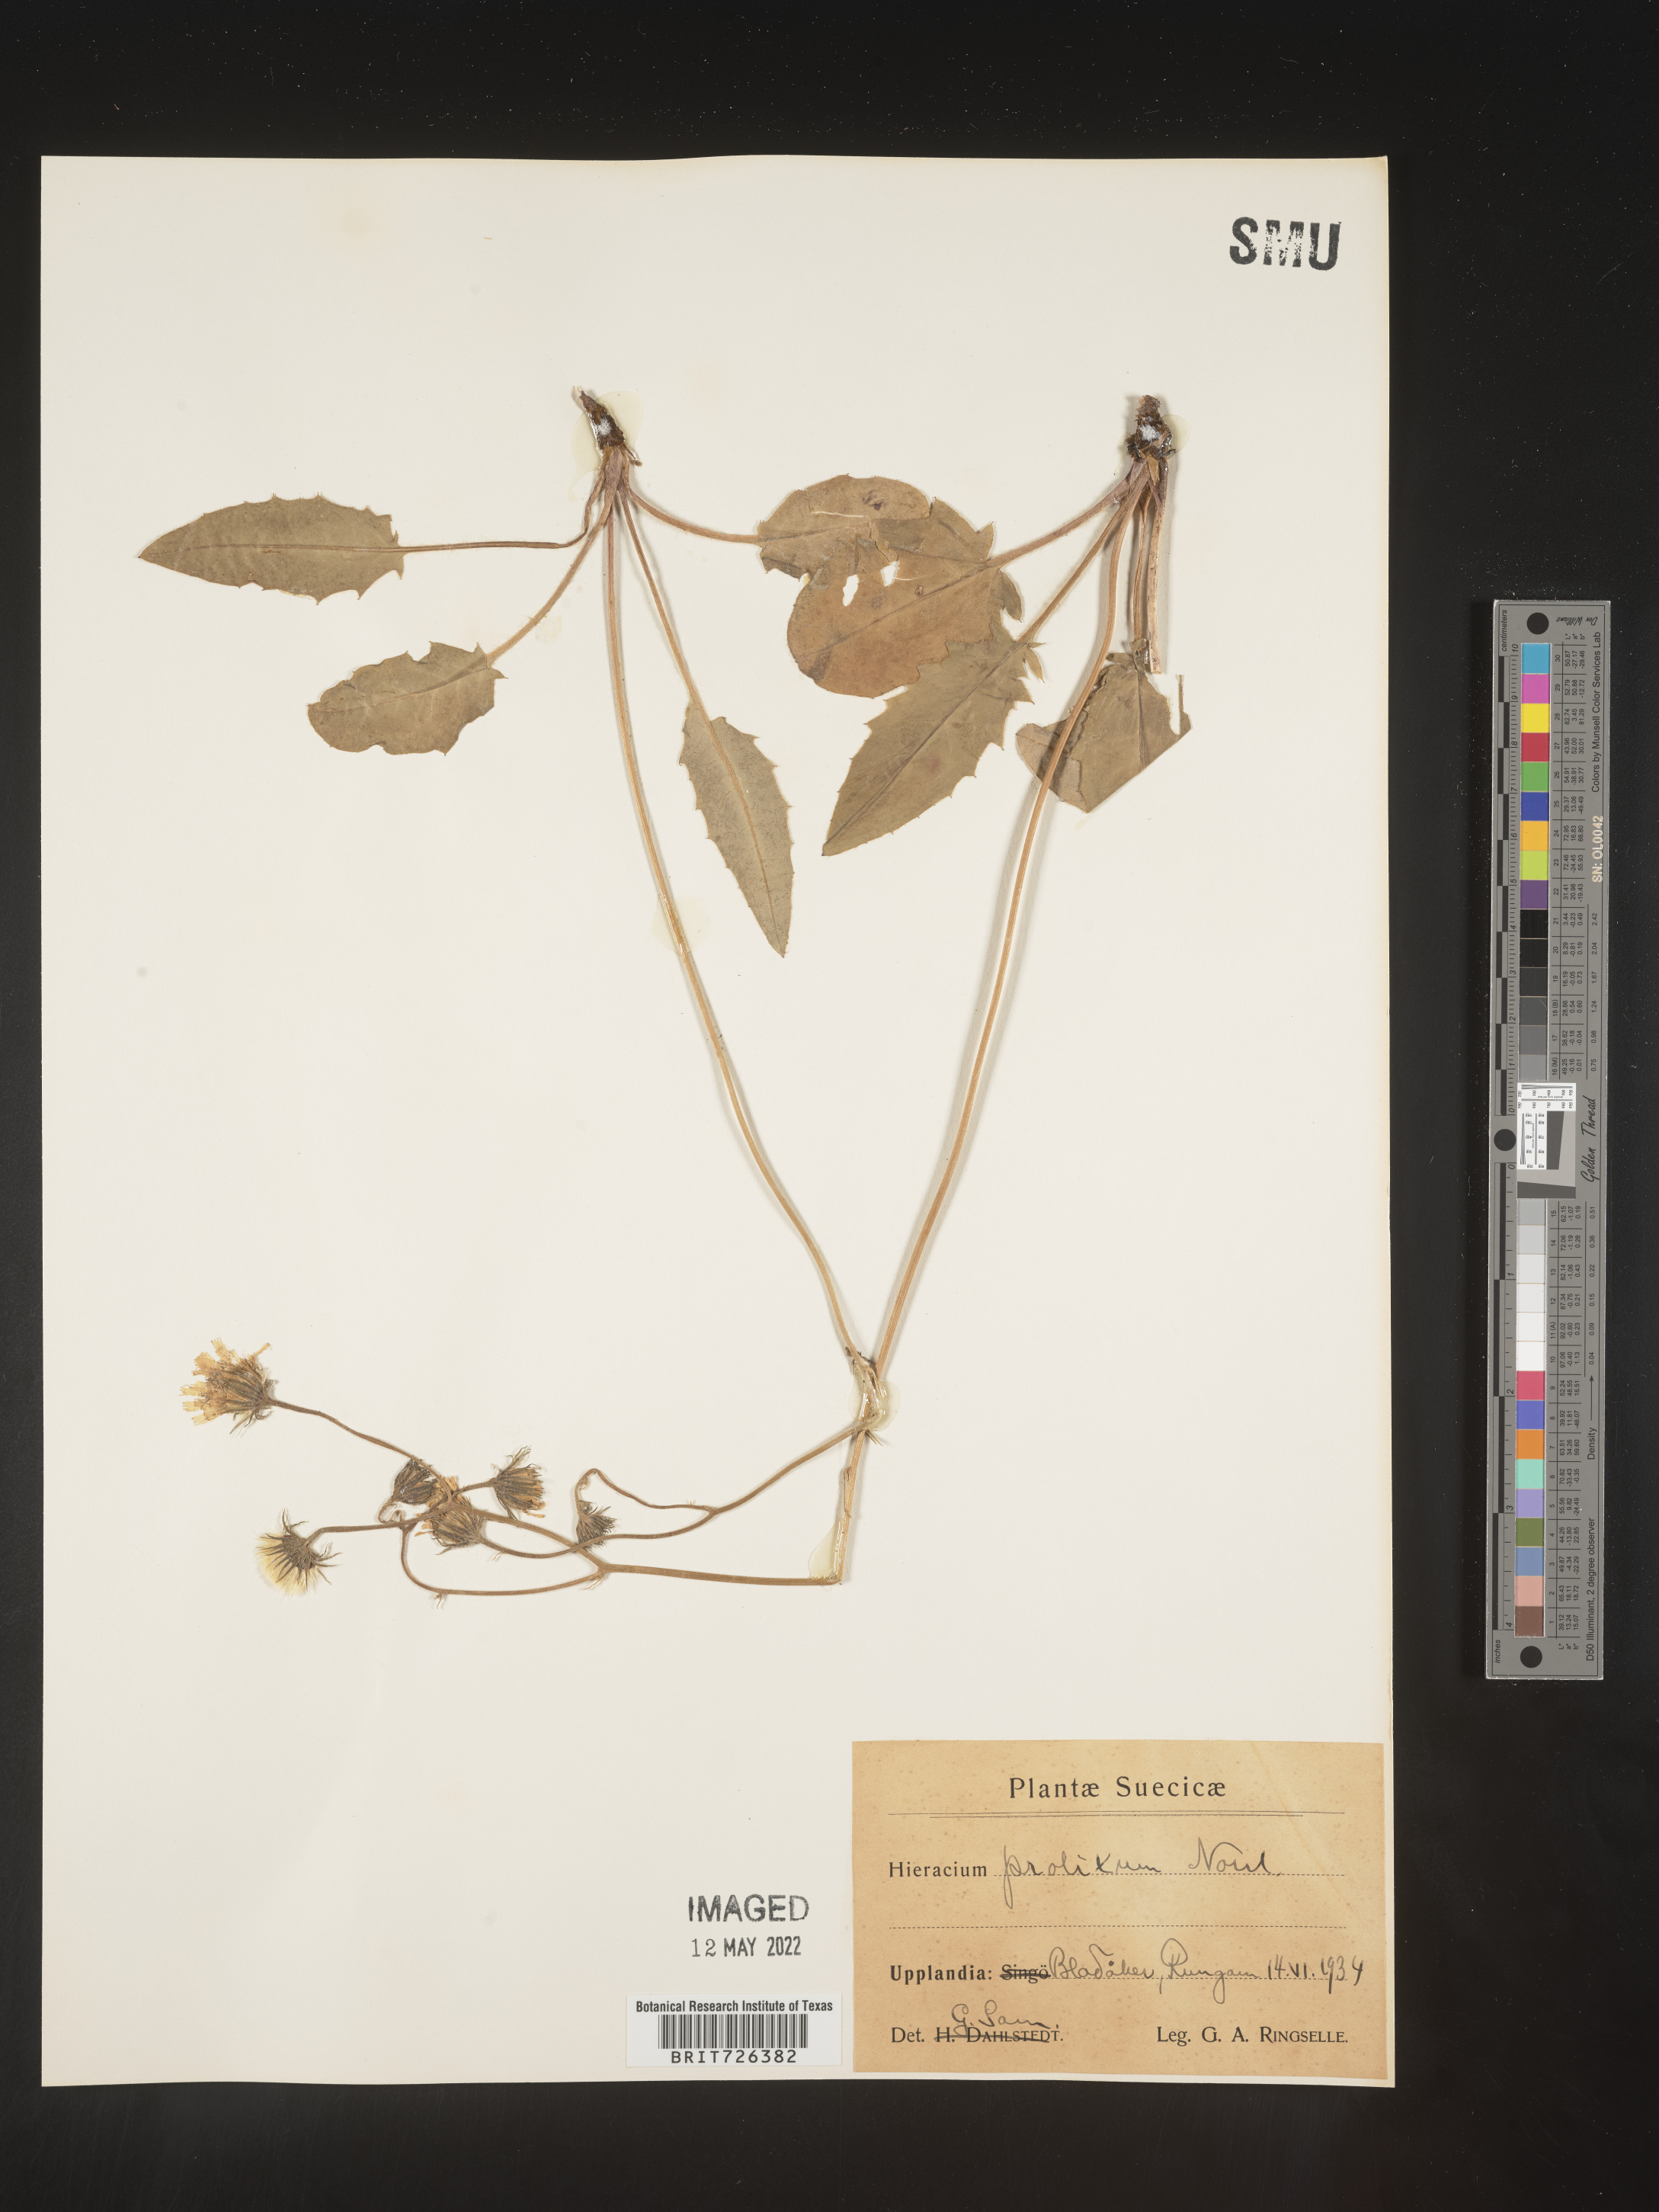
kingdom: Plantae
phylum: Tracheophyta
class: Magnoliopsida
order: Asterales
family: Asteraceae
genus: Hieracium
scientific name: Hieracium
